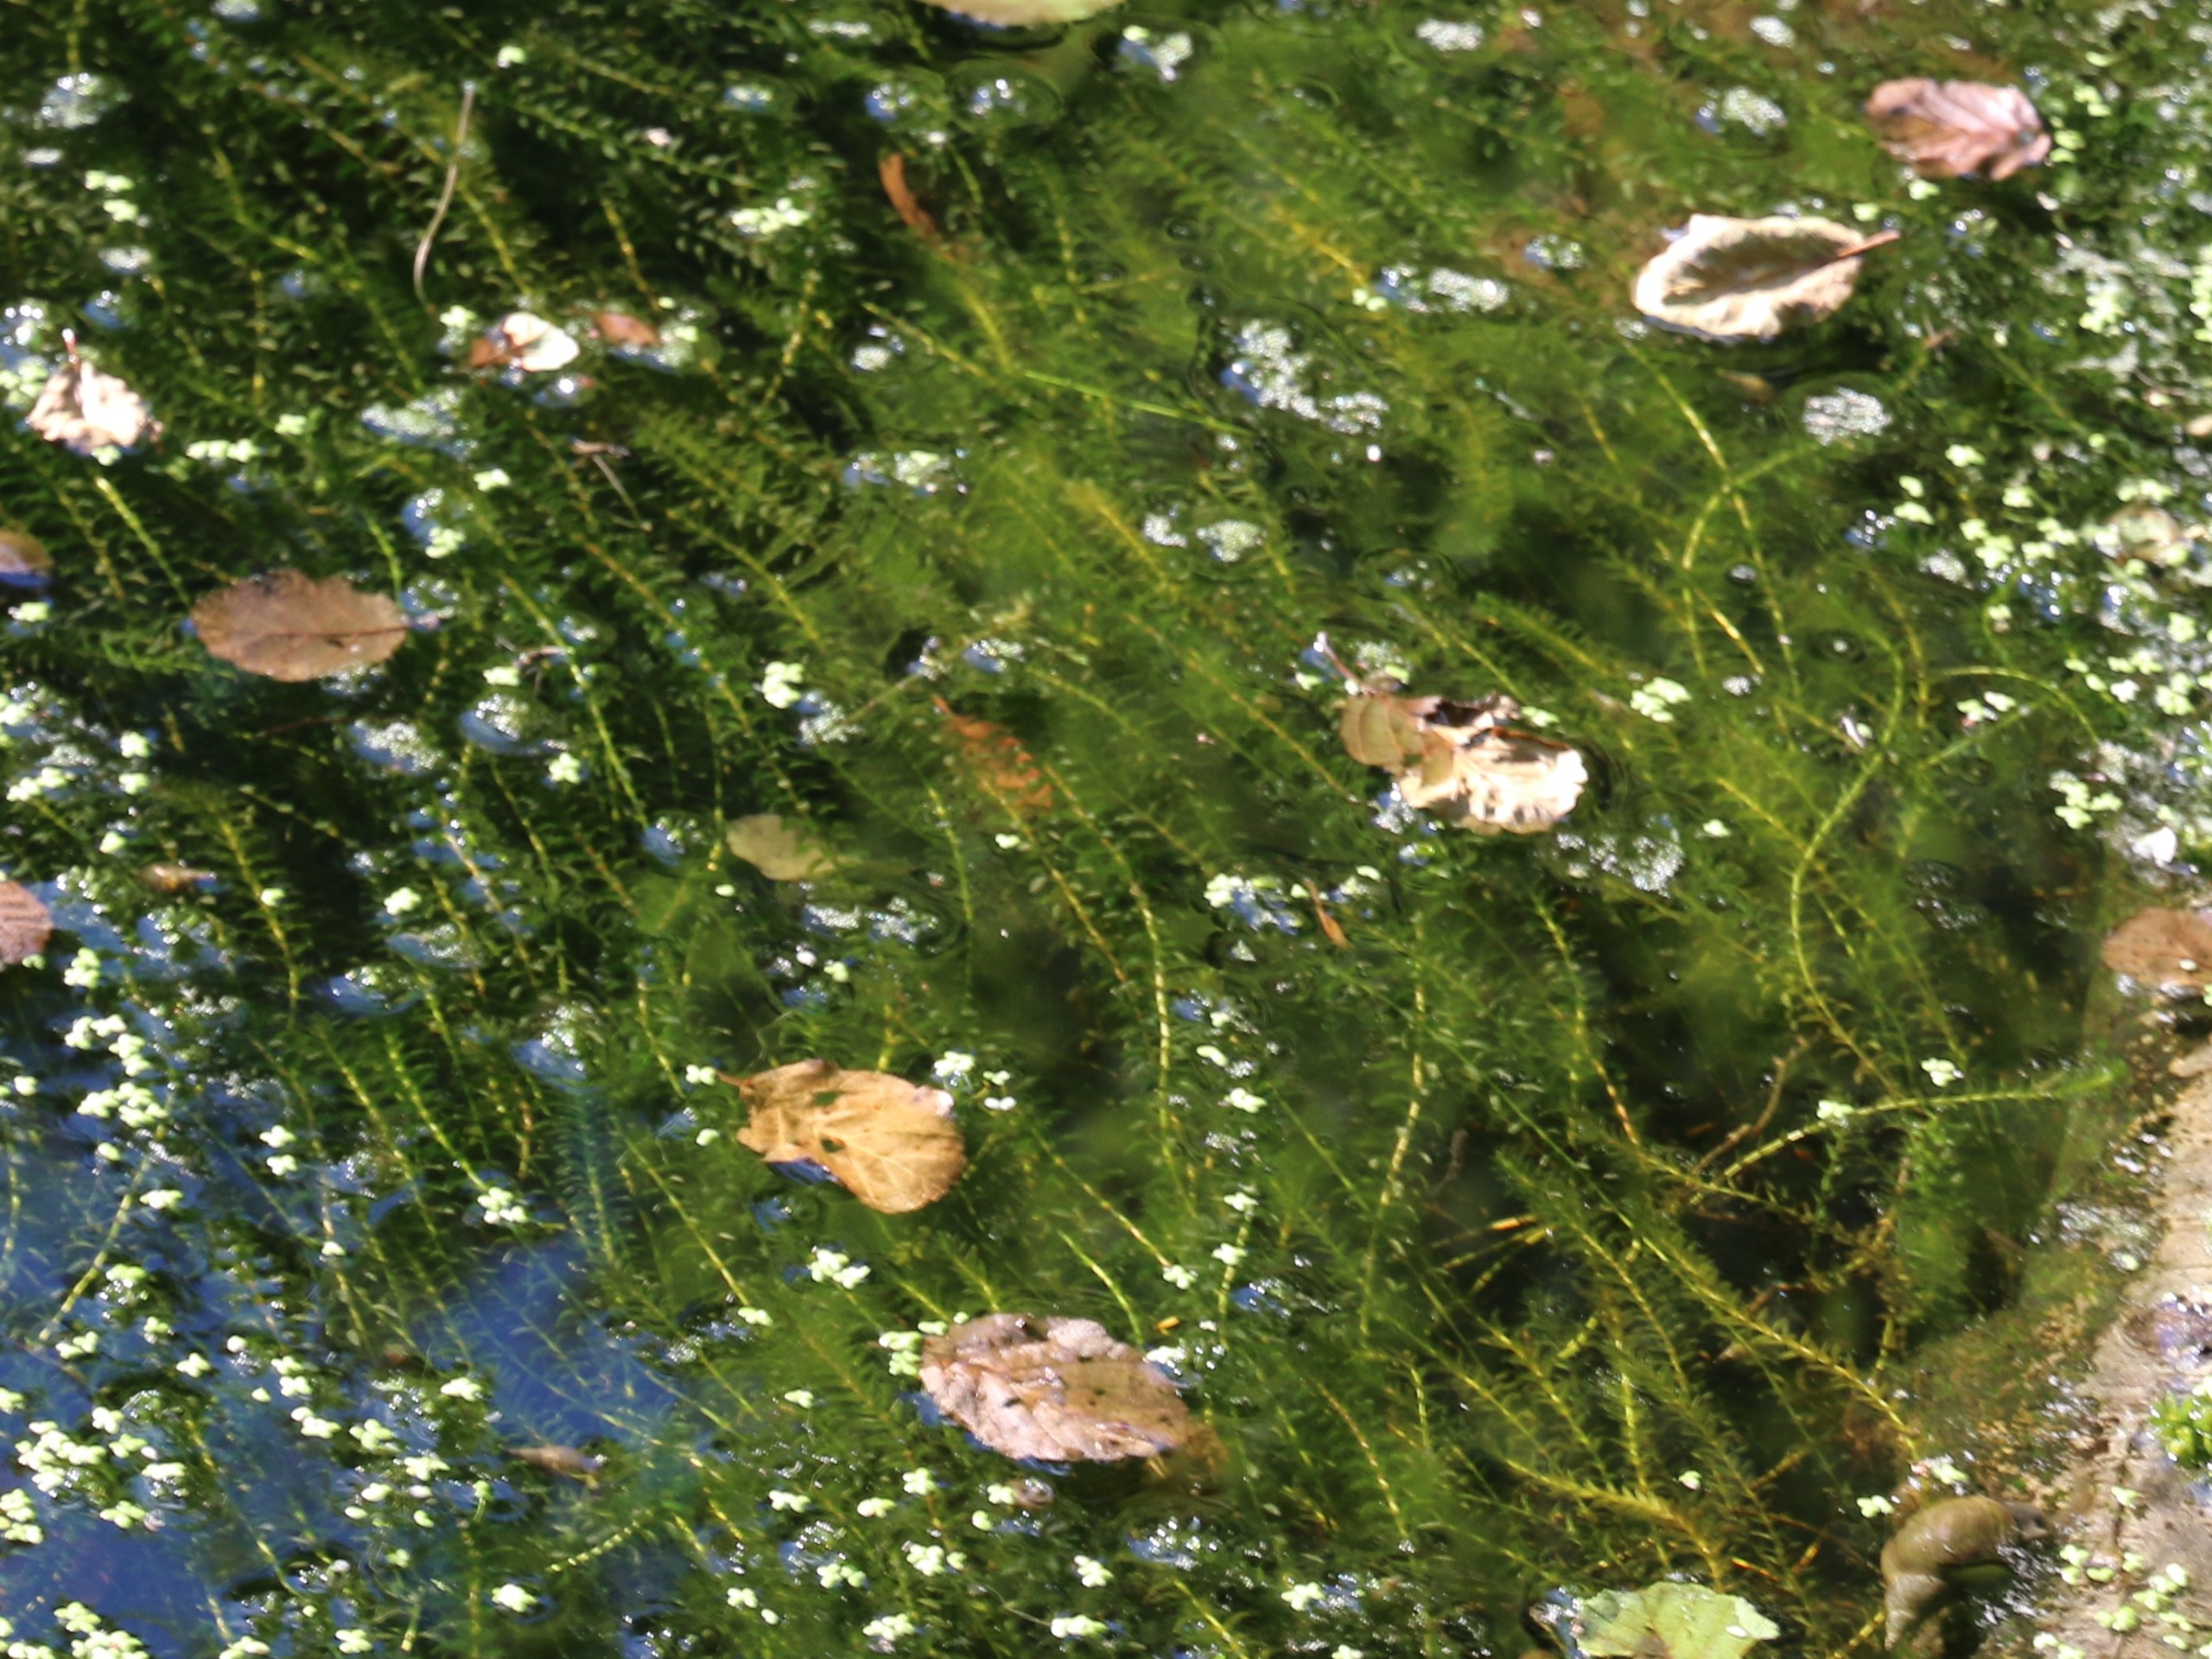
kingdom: Plantae
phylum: Tracheophyta
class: Liliopsida
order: Alismatales
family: Hydrocharitaceae
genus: Elodea
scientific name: Elodea canadensis
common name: Vandpest
